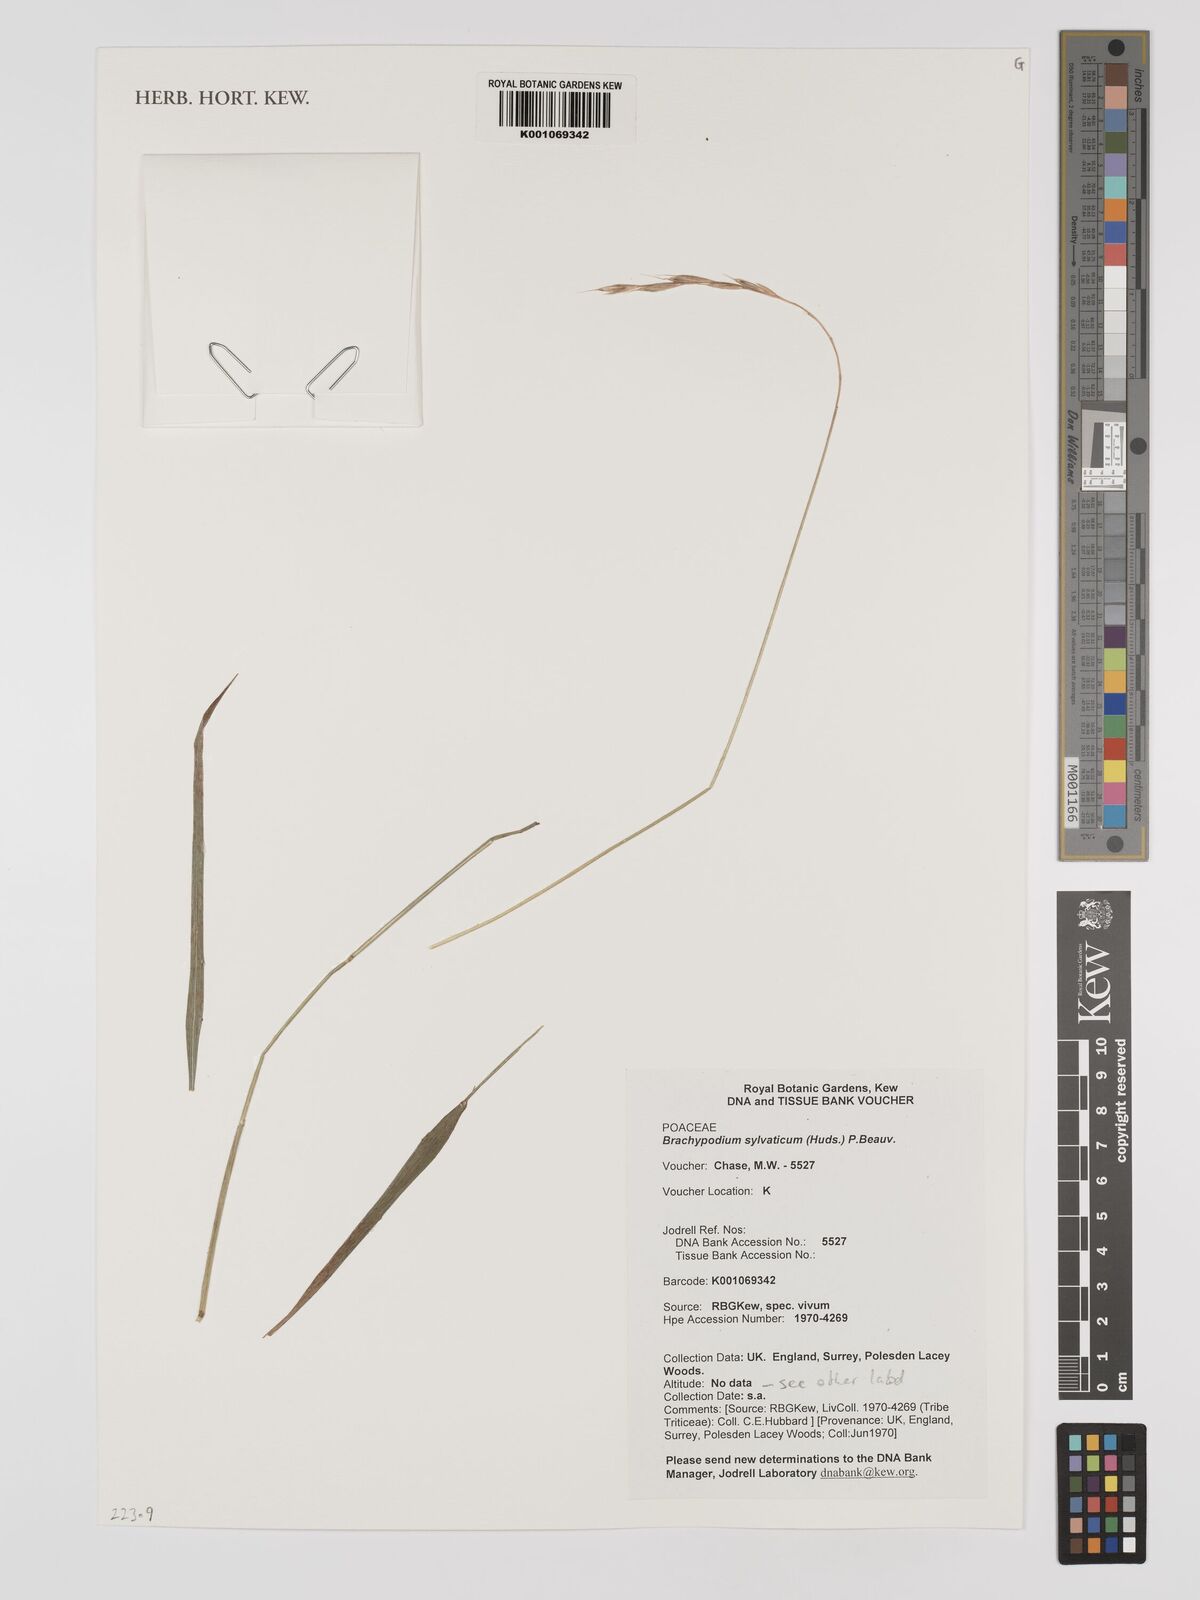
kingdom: Plantae
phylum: Tracheophyta
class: Liliopsida
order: Poales
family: Poaceae
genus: Brachypodium
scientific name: Brachypodium sylvaticum
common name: False-brome
